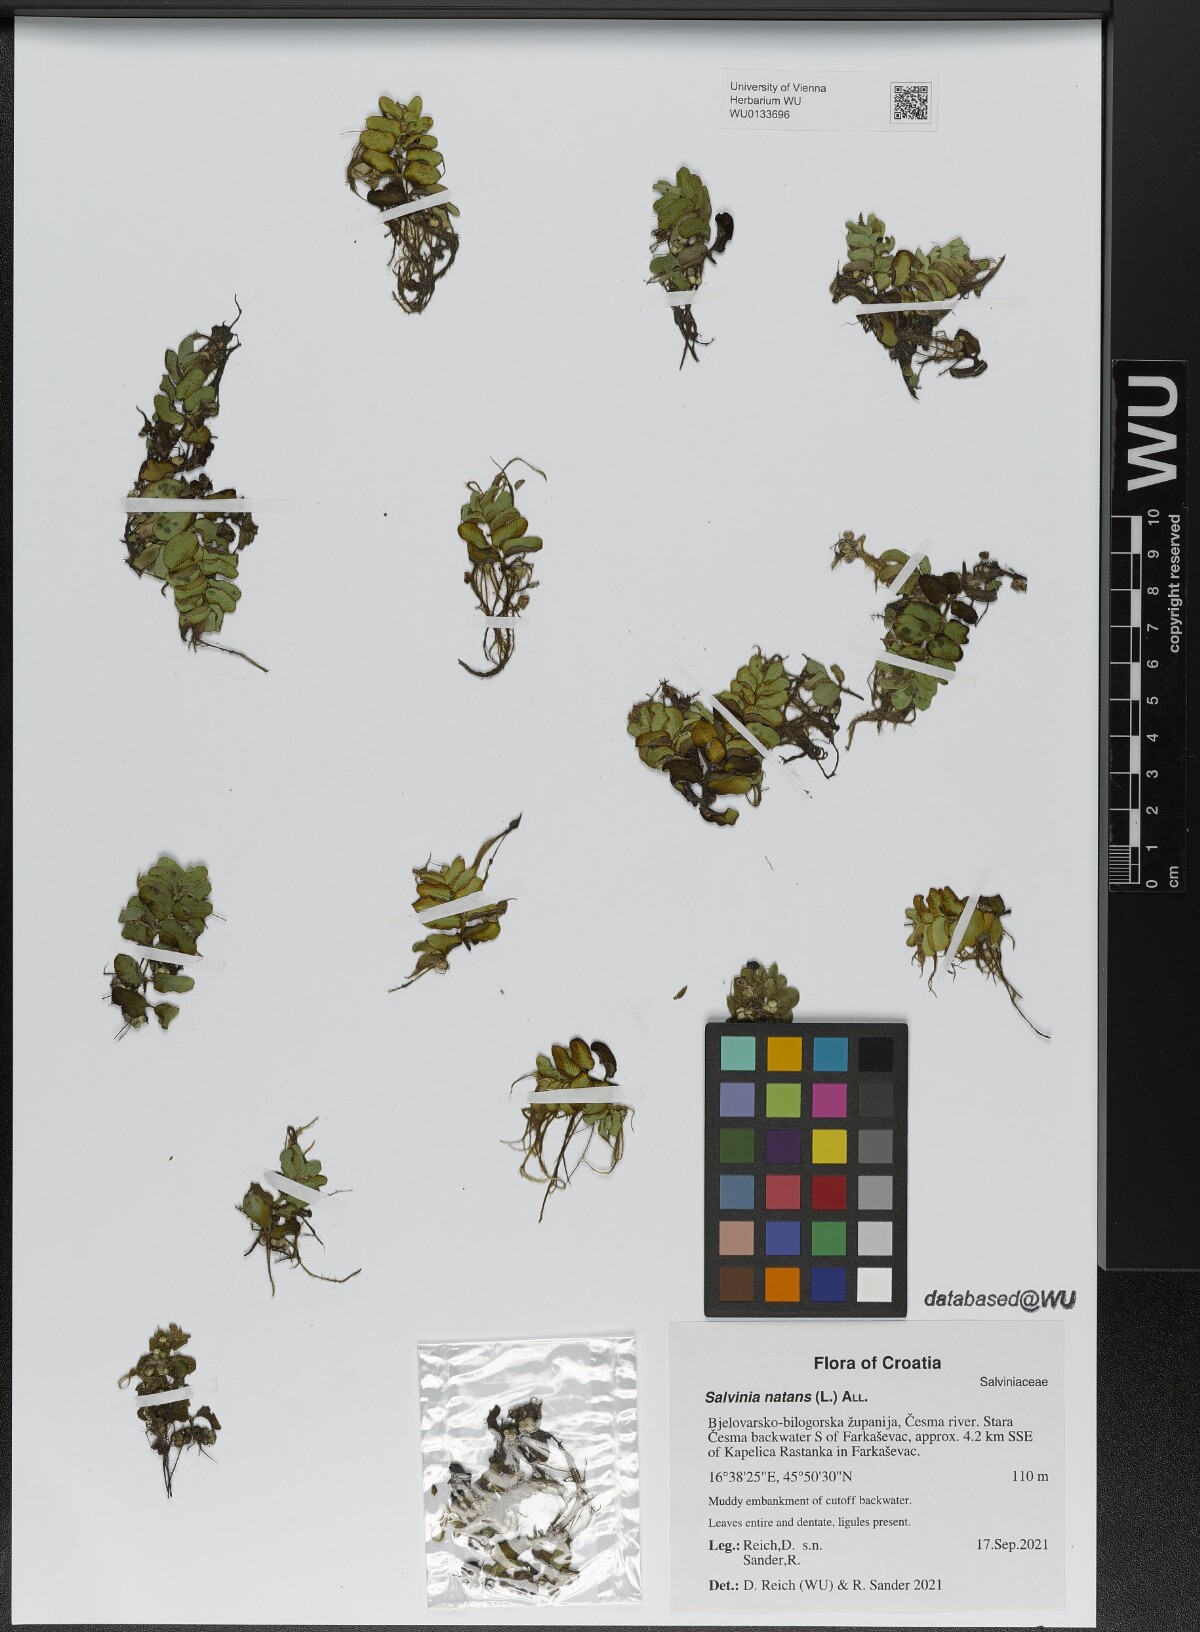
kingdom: Plantae
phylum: Tracheophyta
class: Polypodiopsida
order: Salviniales
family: Salviniaceae
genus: Salvinia
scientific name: Salvinia natans
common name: Floating fern
